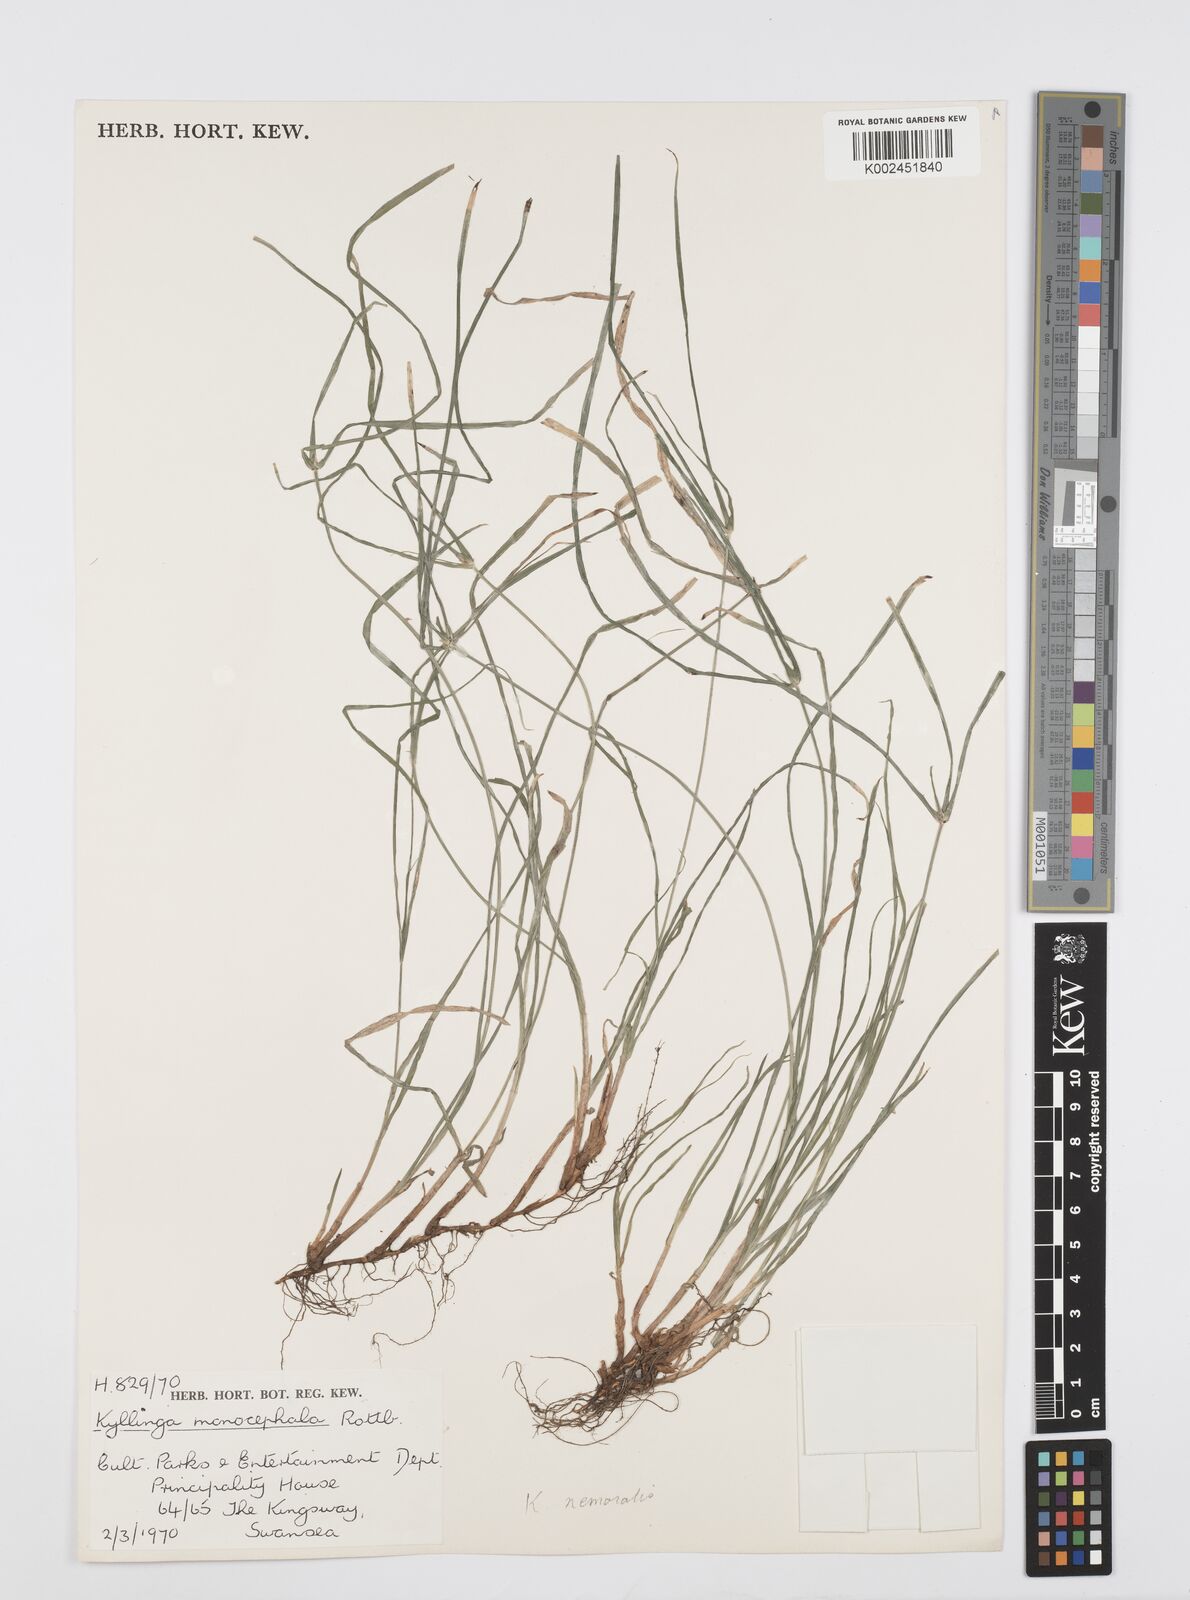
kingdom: Plantae
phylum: Tracheophyta
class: Liliopsida
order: Poales
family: Cyperaceae
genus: Cyperus
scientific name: Cyperus nemoralis
